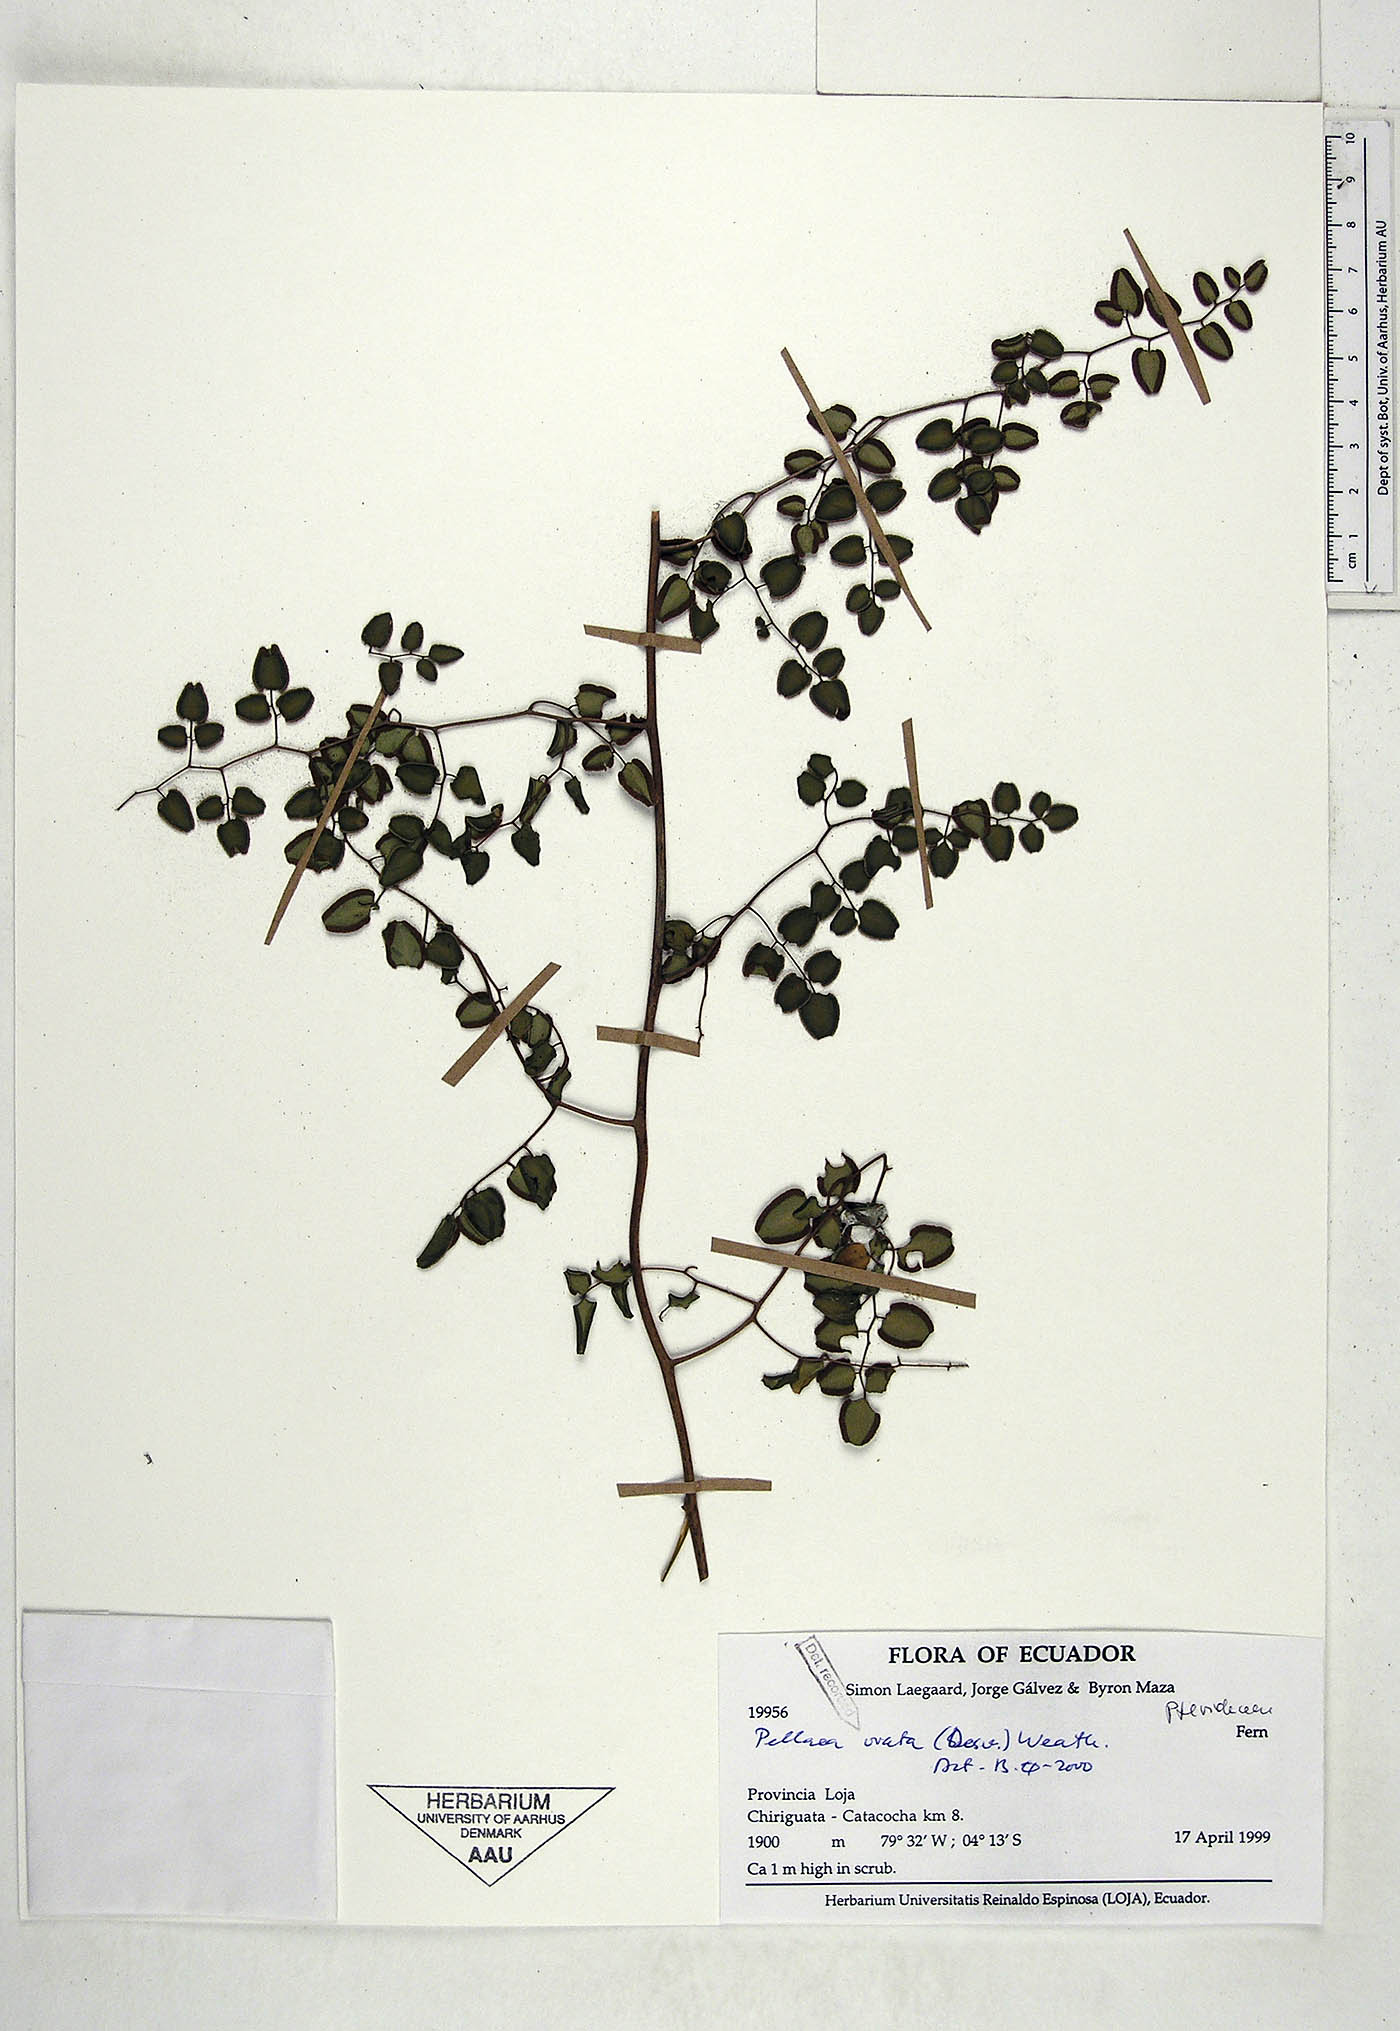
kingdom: Plantae
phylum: Tracheophyta
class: Polypodiopsida
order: Polypodiales
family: Pteridaceae
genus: Pellaea
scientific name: Pellaea ovata
